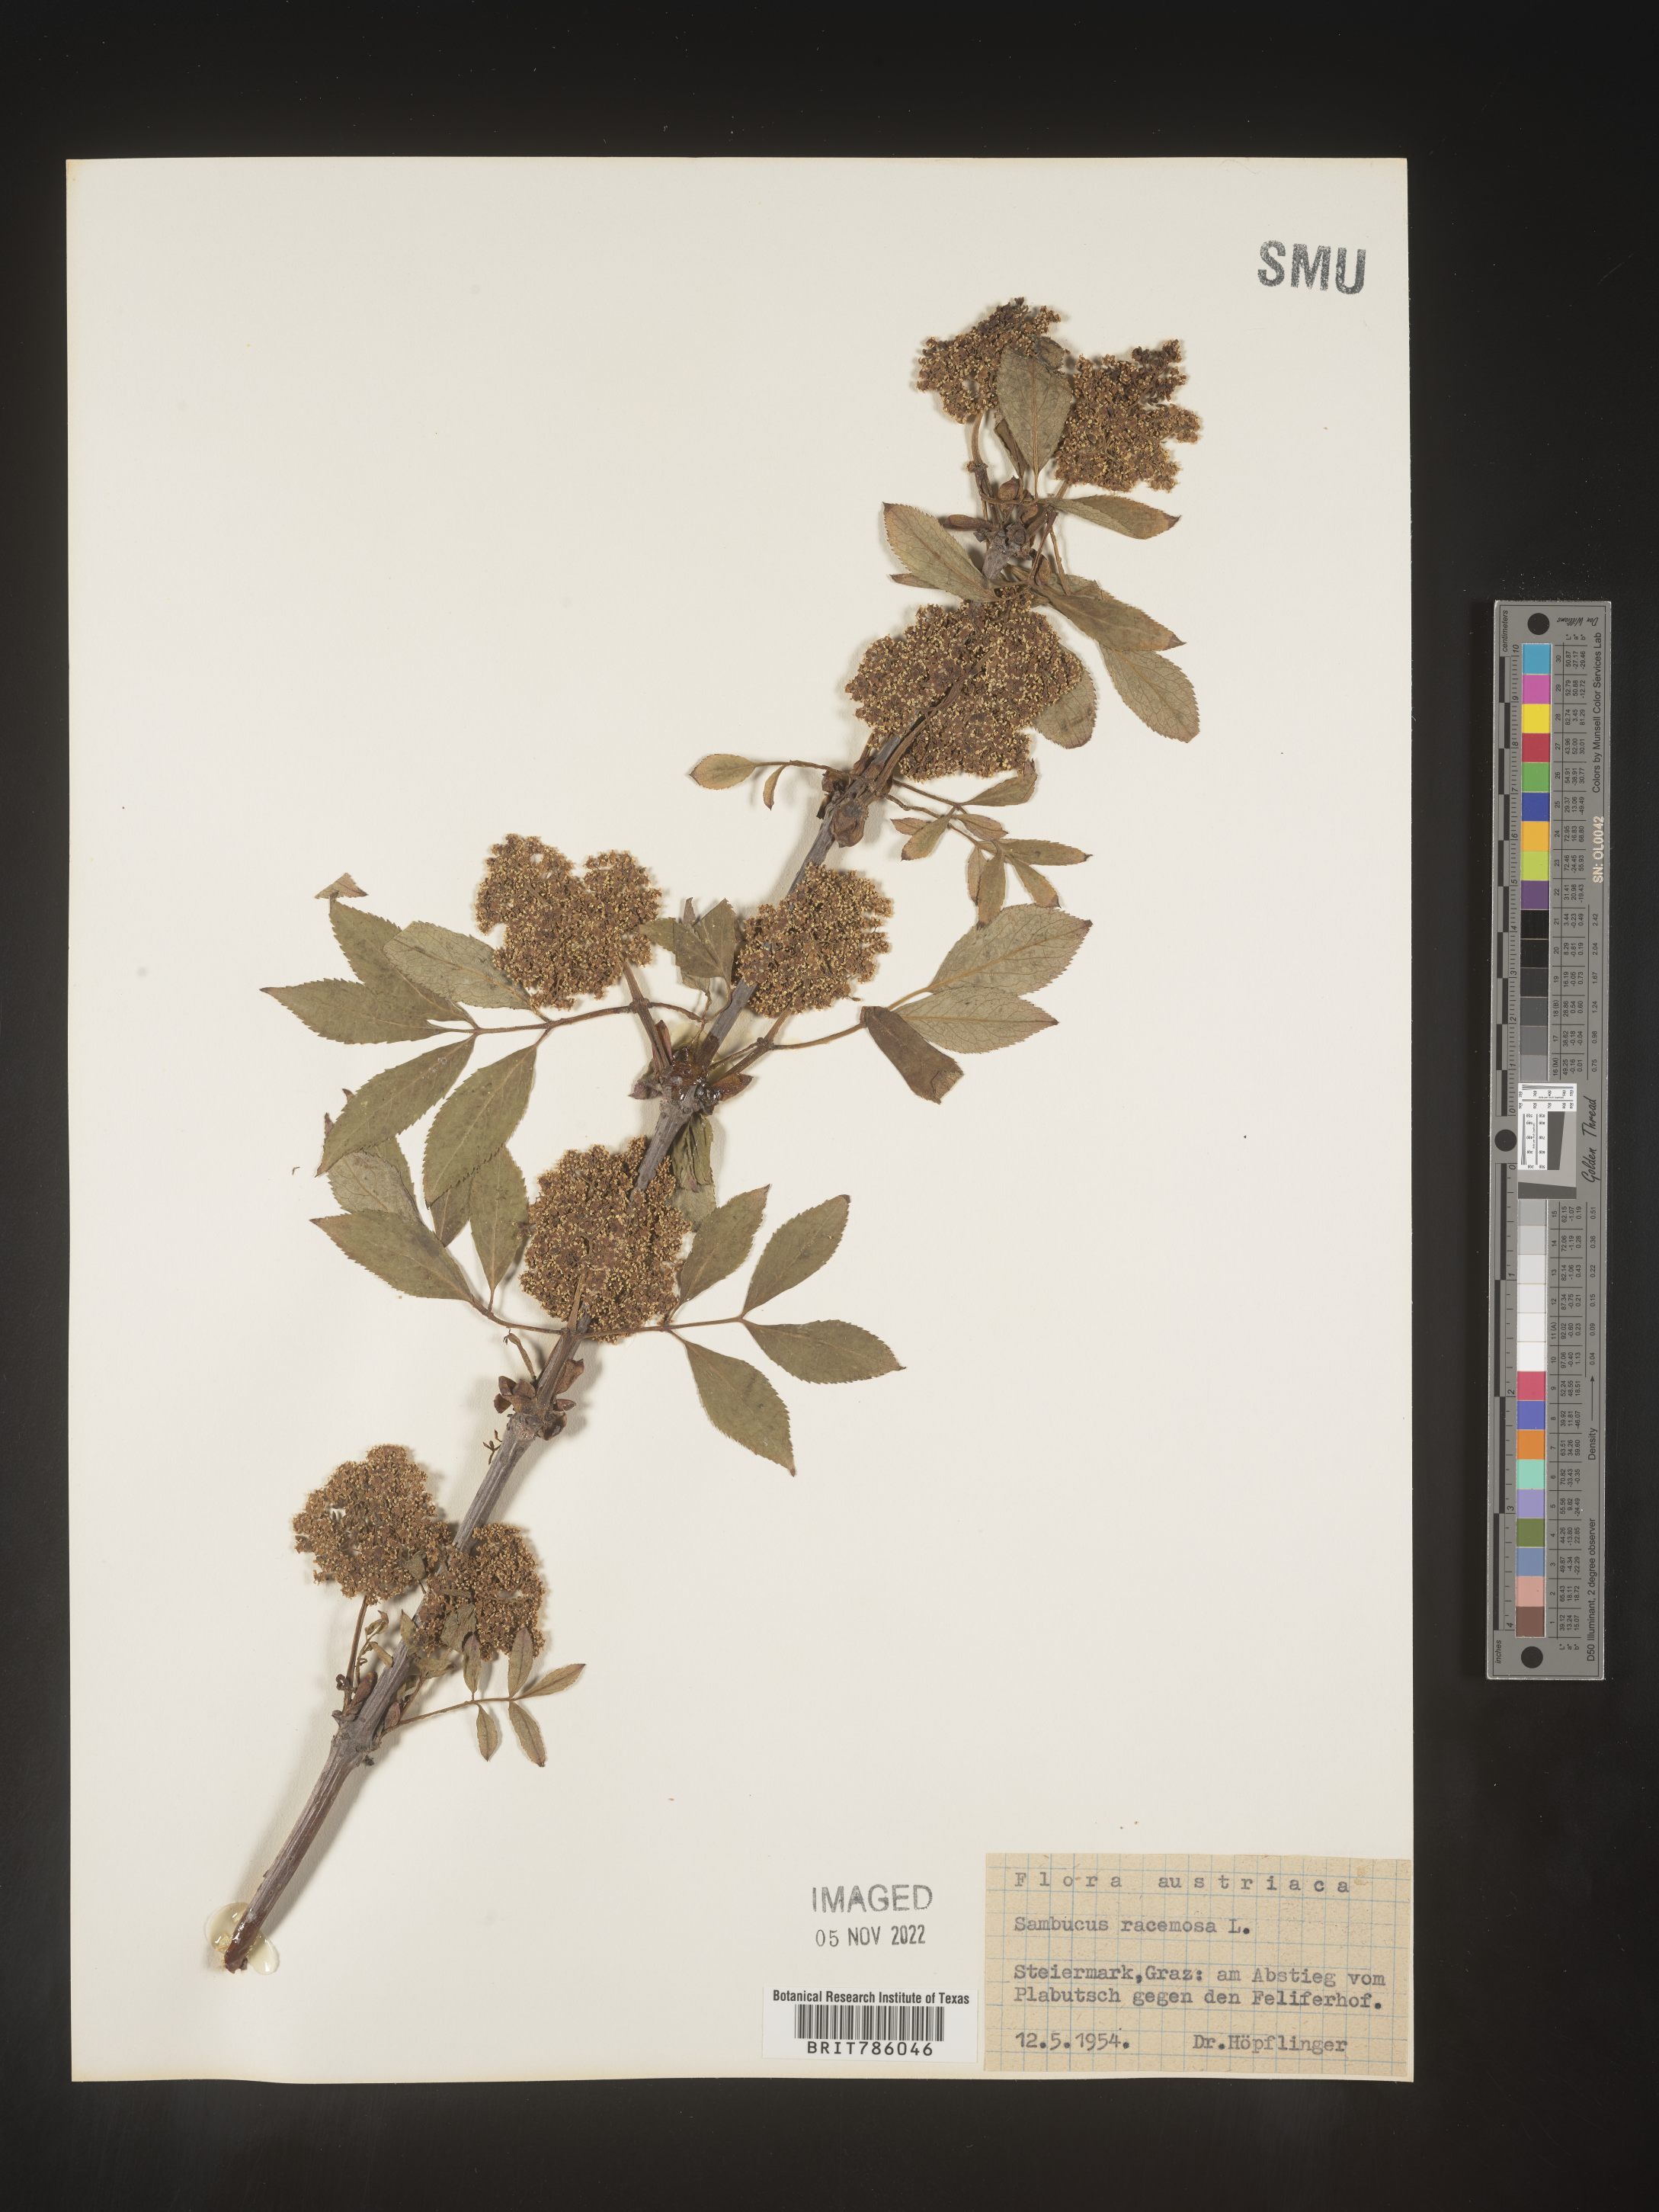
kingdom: Plantae
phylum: Tracheophyta
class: Magnoliopsida
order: Dipsacales
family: Viburnaceae
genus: Sambucus
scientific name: Sambucus
